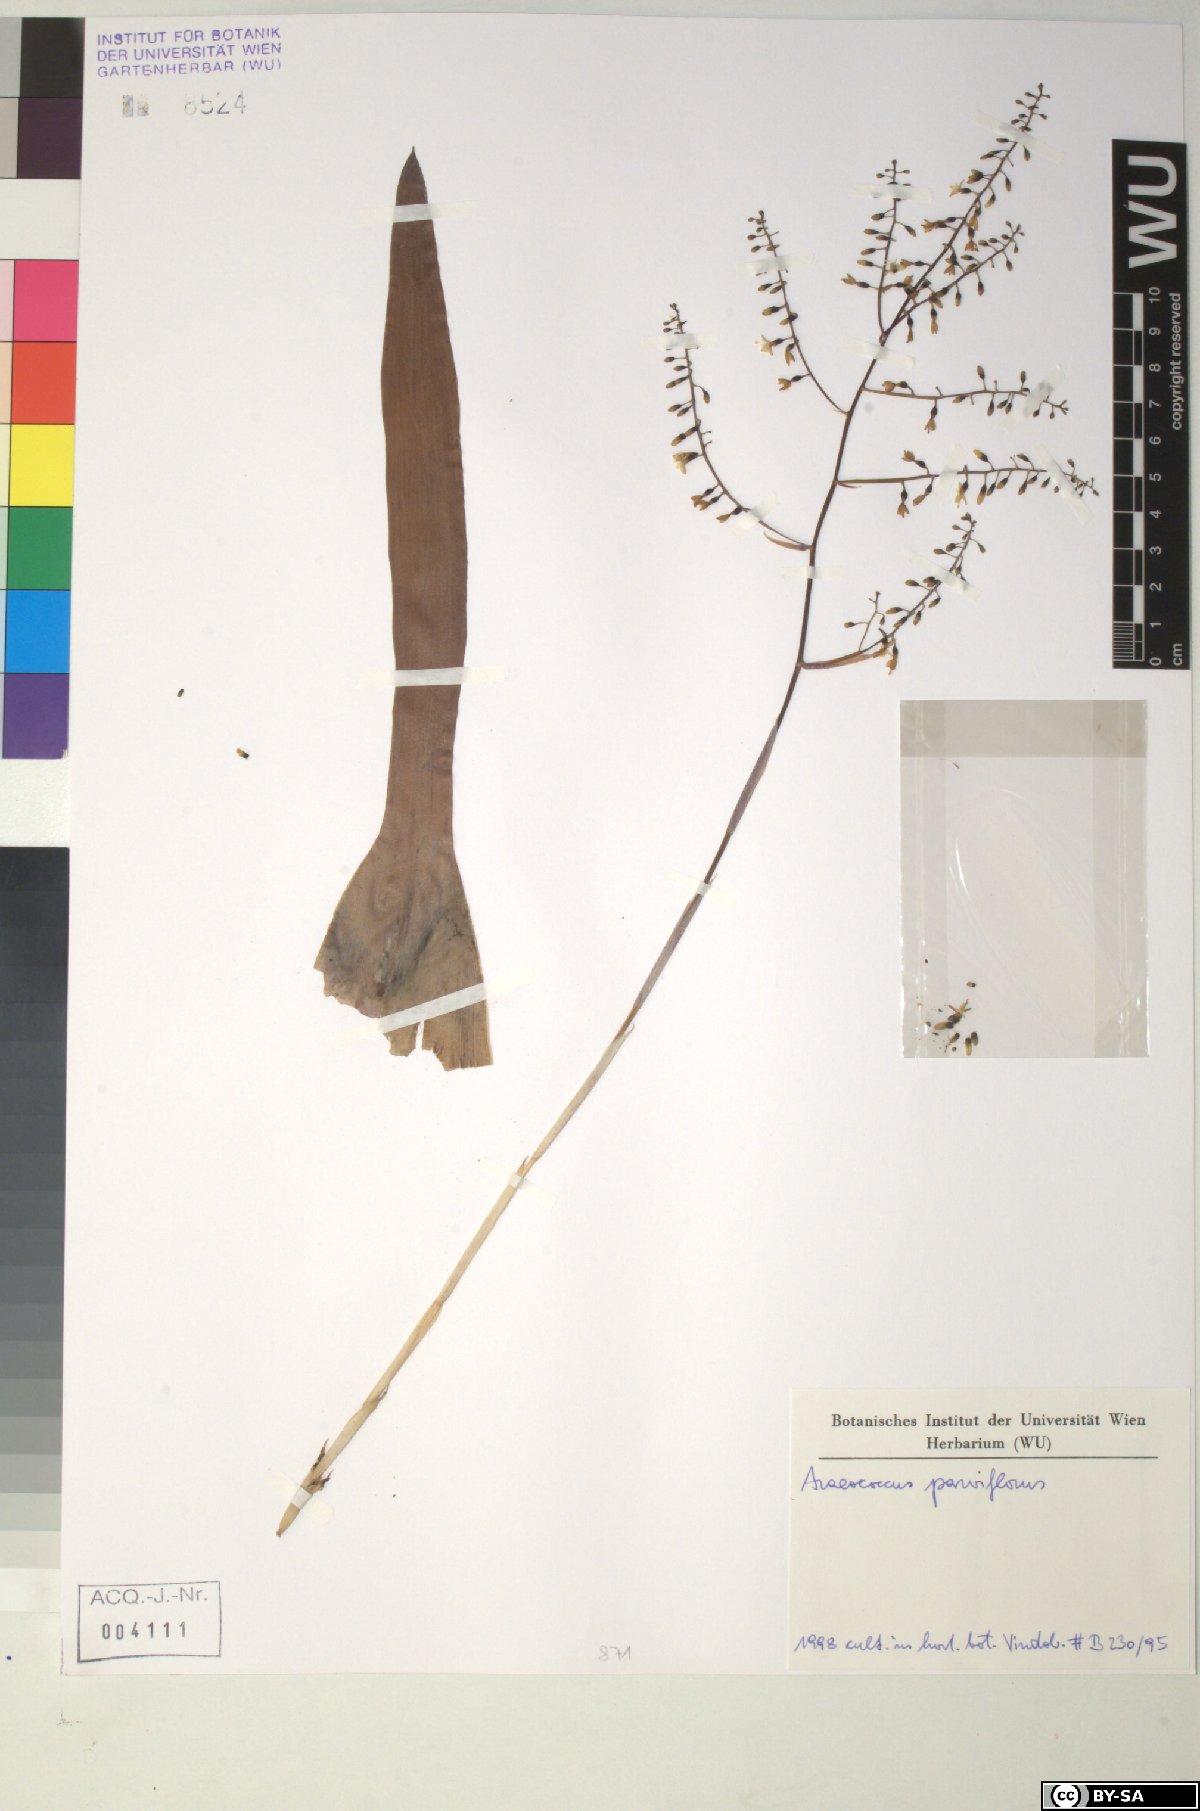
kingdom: Plantae
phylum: Tracheophyta
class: Liliopsida
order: Poales
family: Bromeliaceae
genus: Pseudaraeococcus
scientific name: Pseudaraeococcus parviflorus
